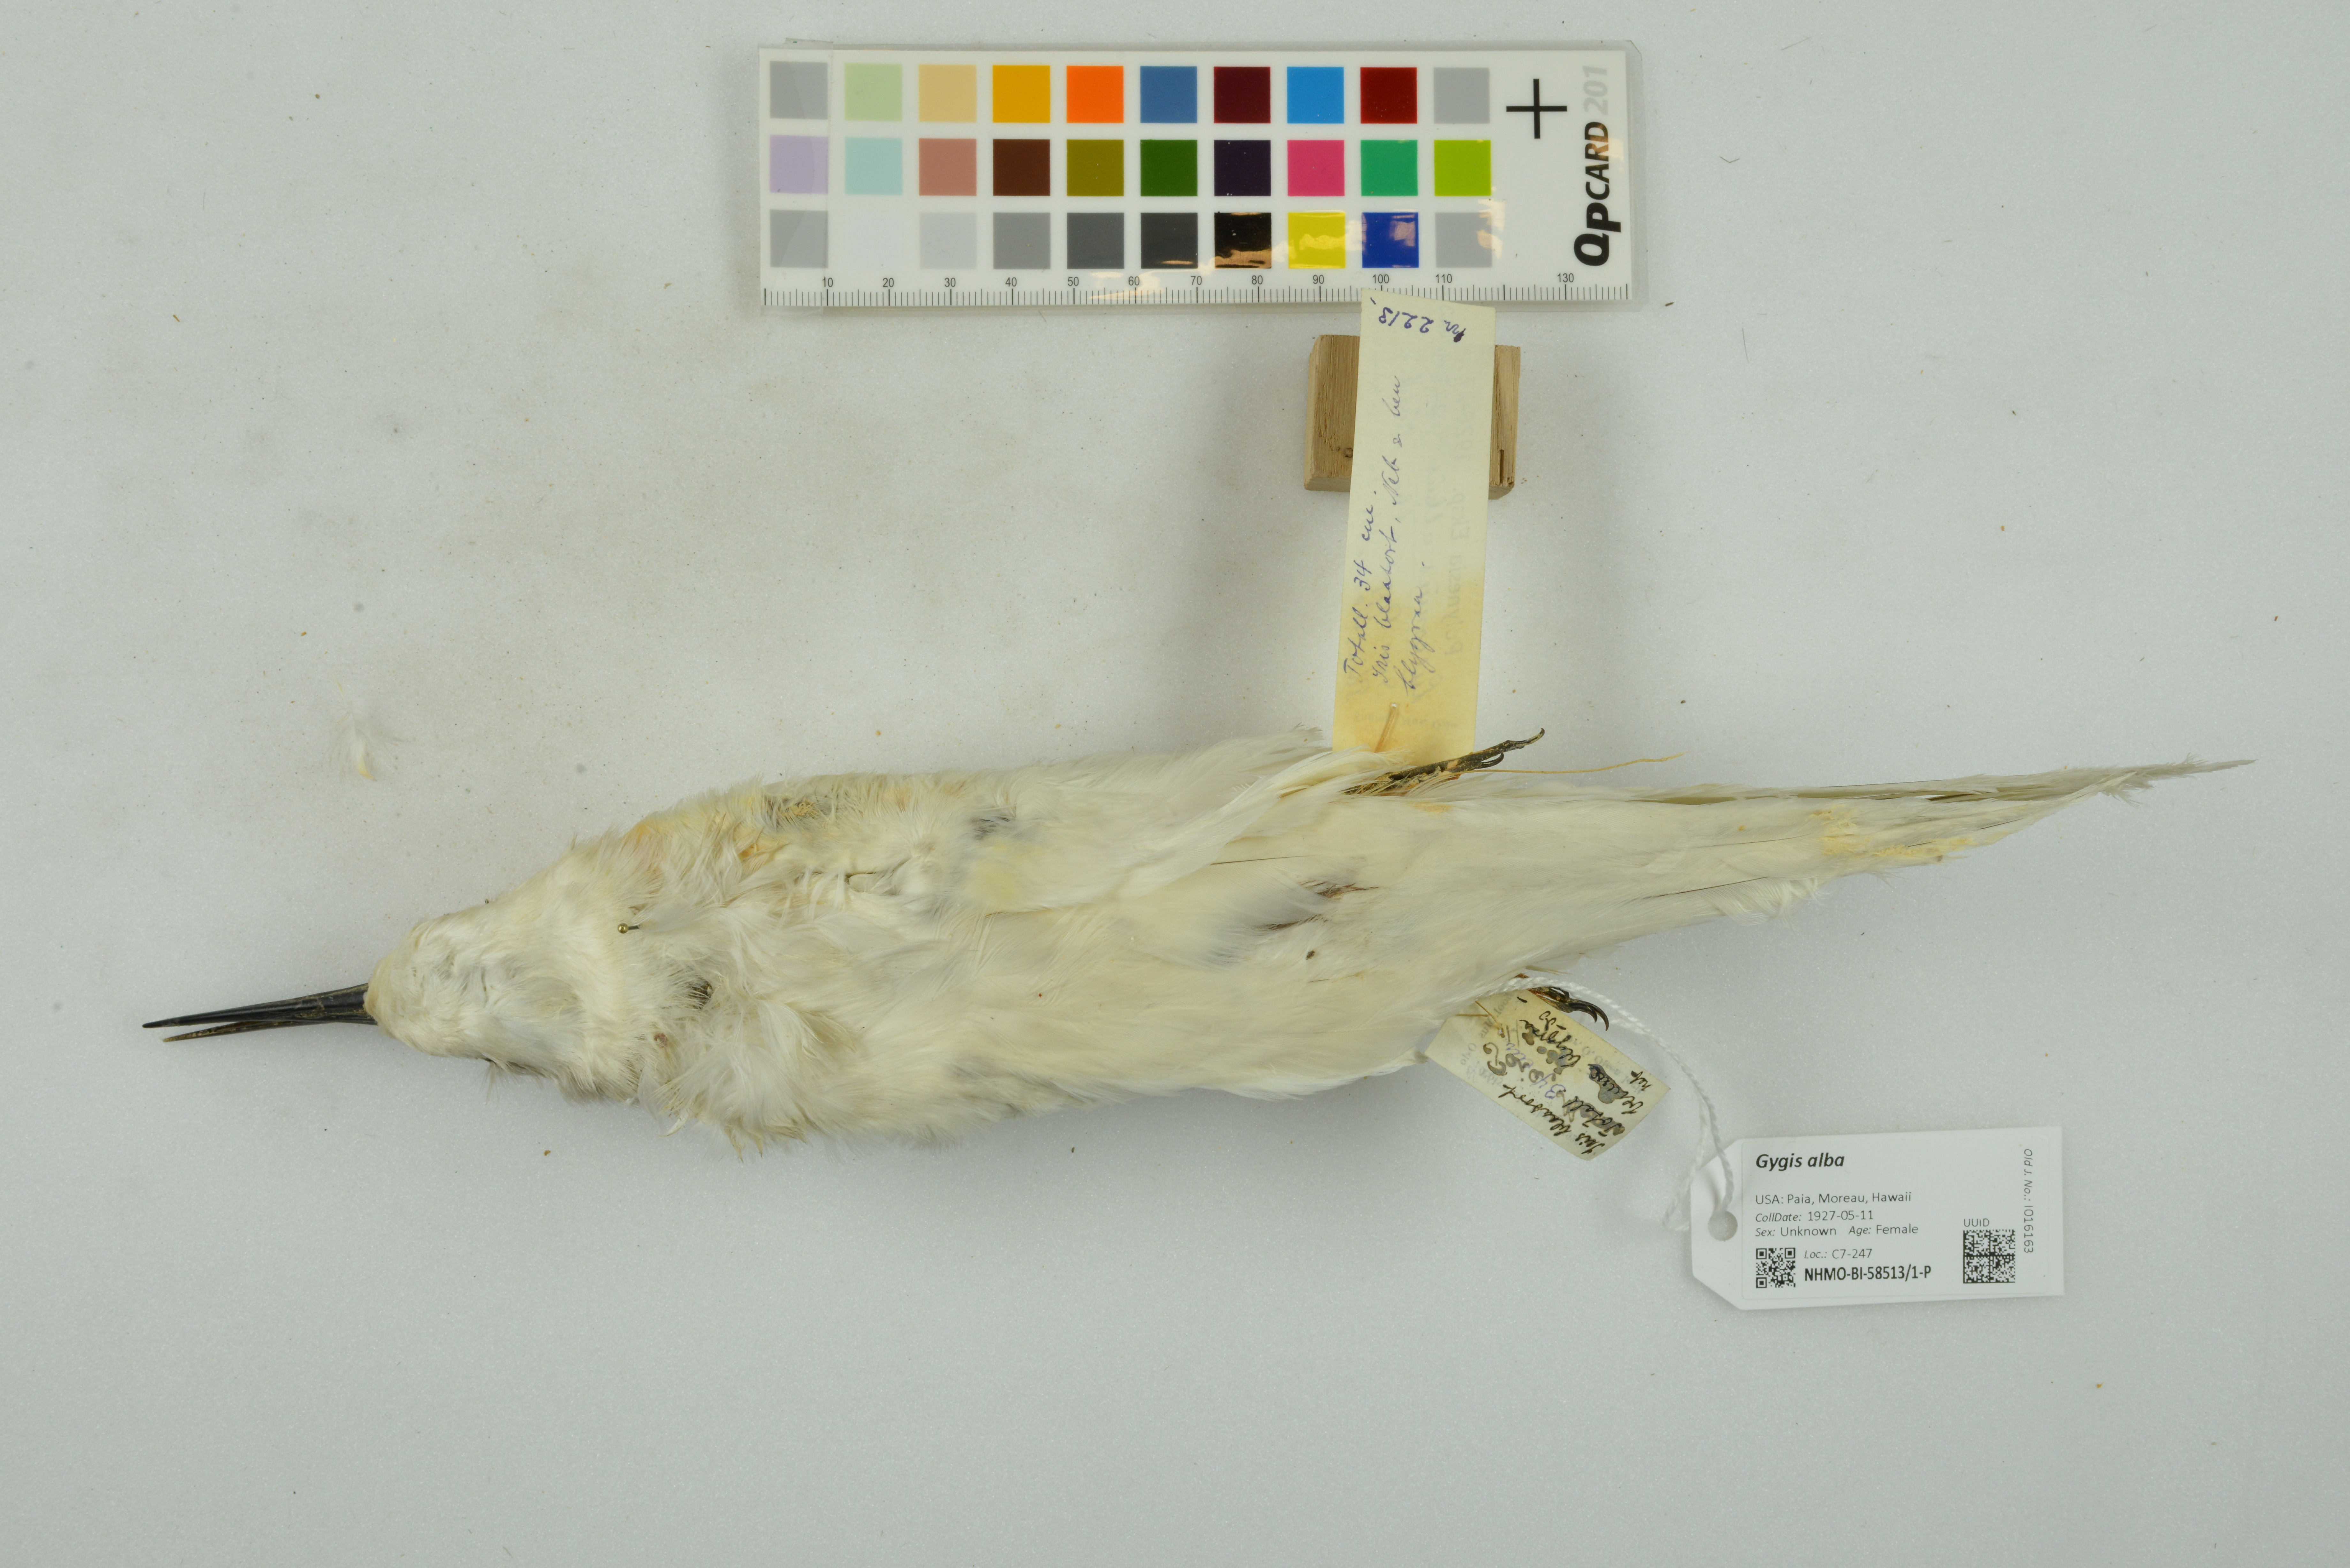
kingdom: Animalia
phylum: Chordata
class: Aves
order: Charadriiformes
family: Laridae
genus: Gygis
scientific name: Gygis alba
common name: White tern
